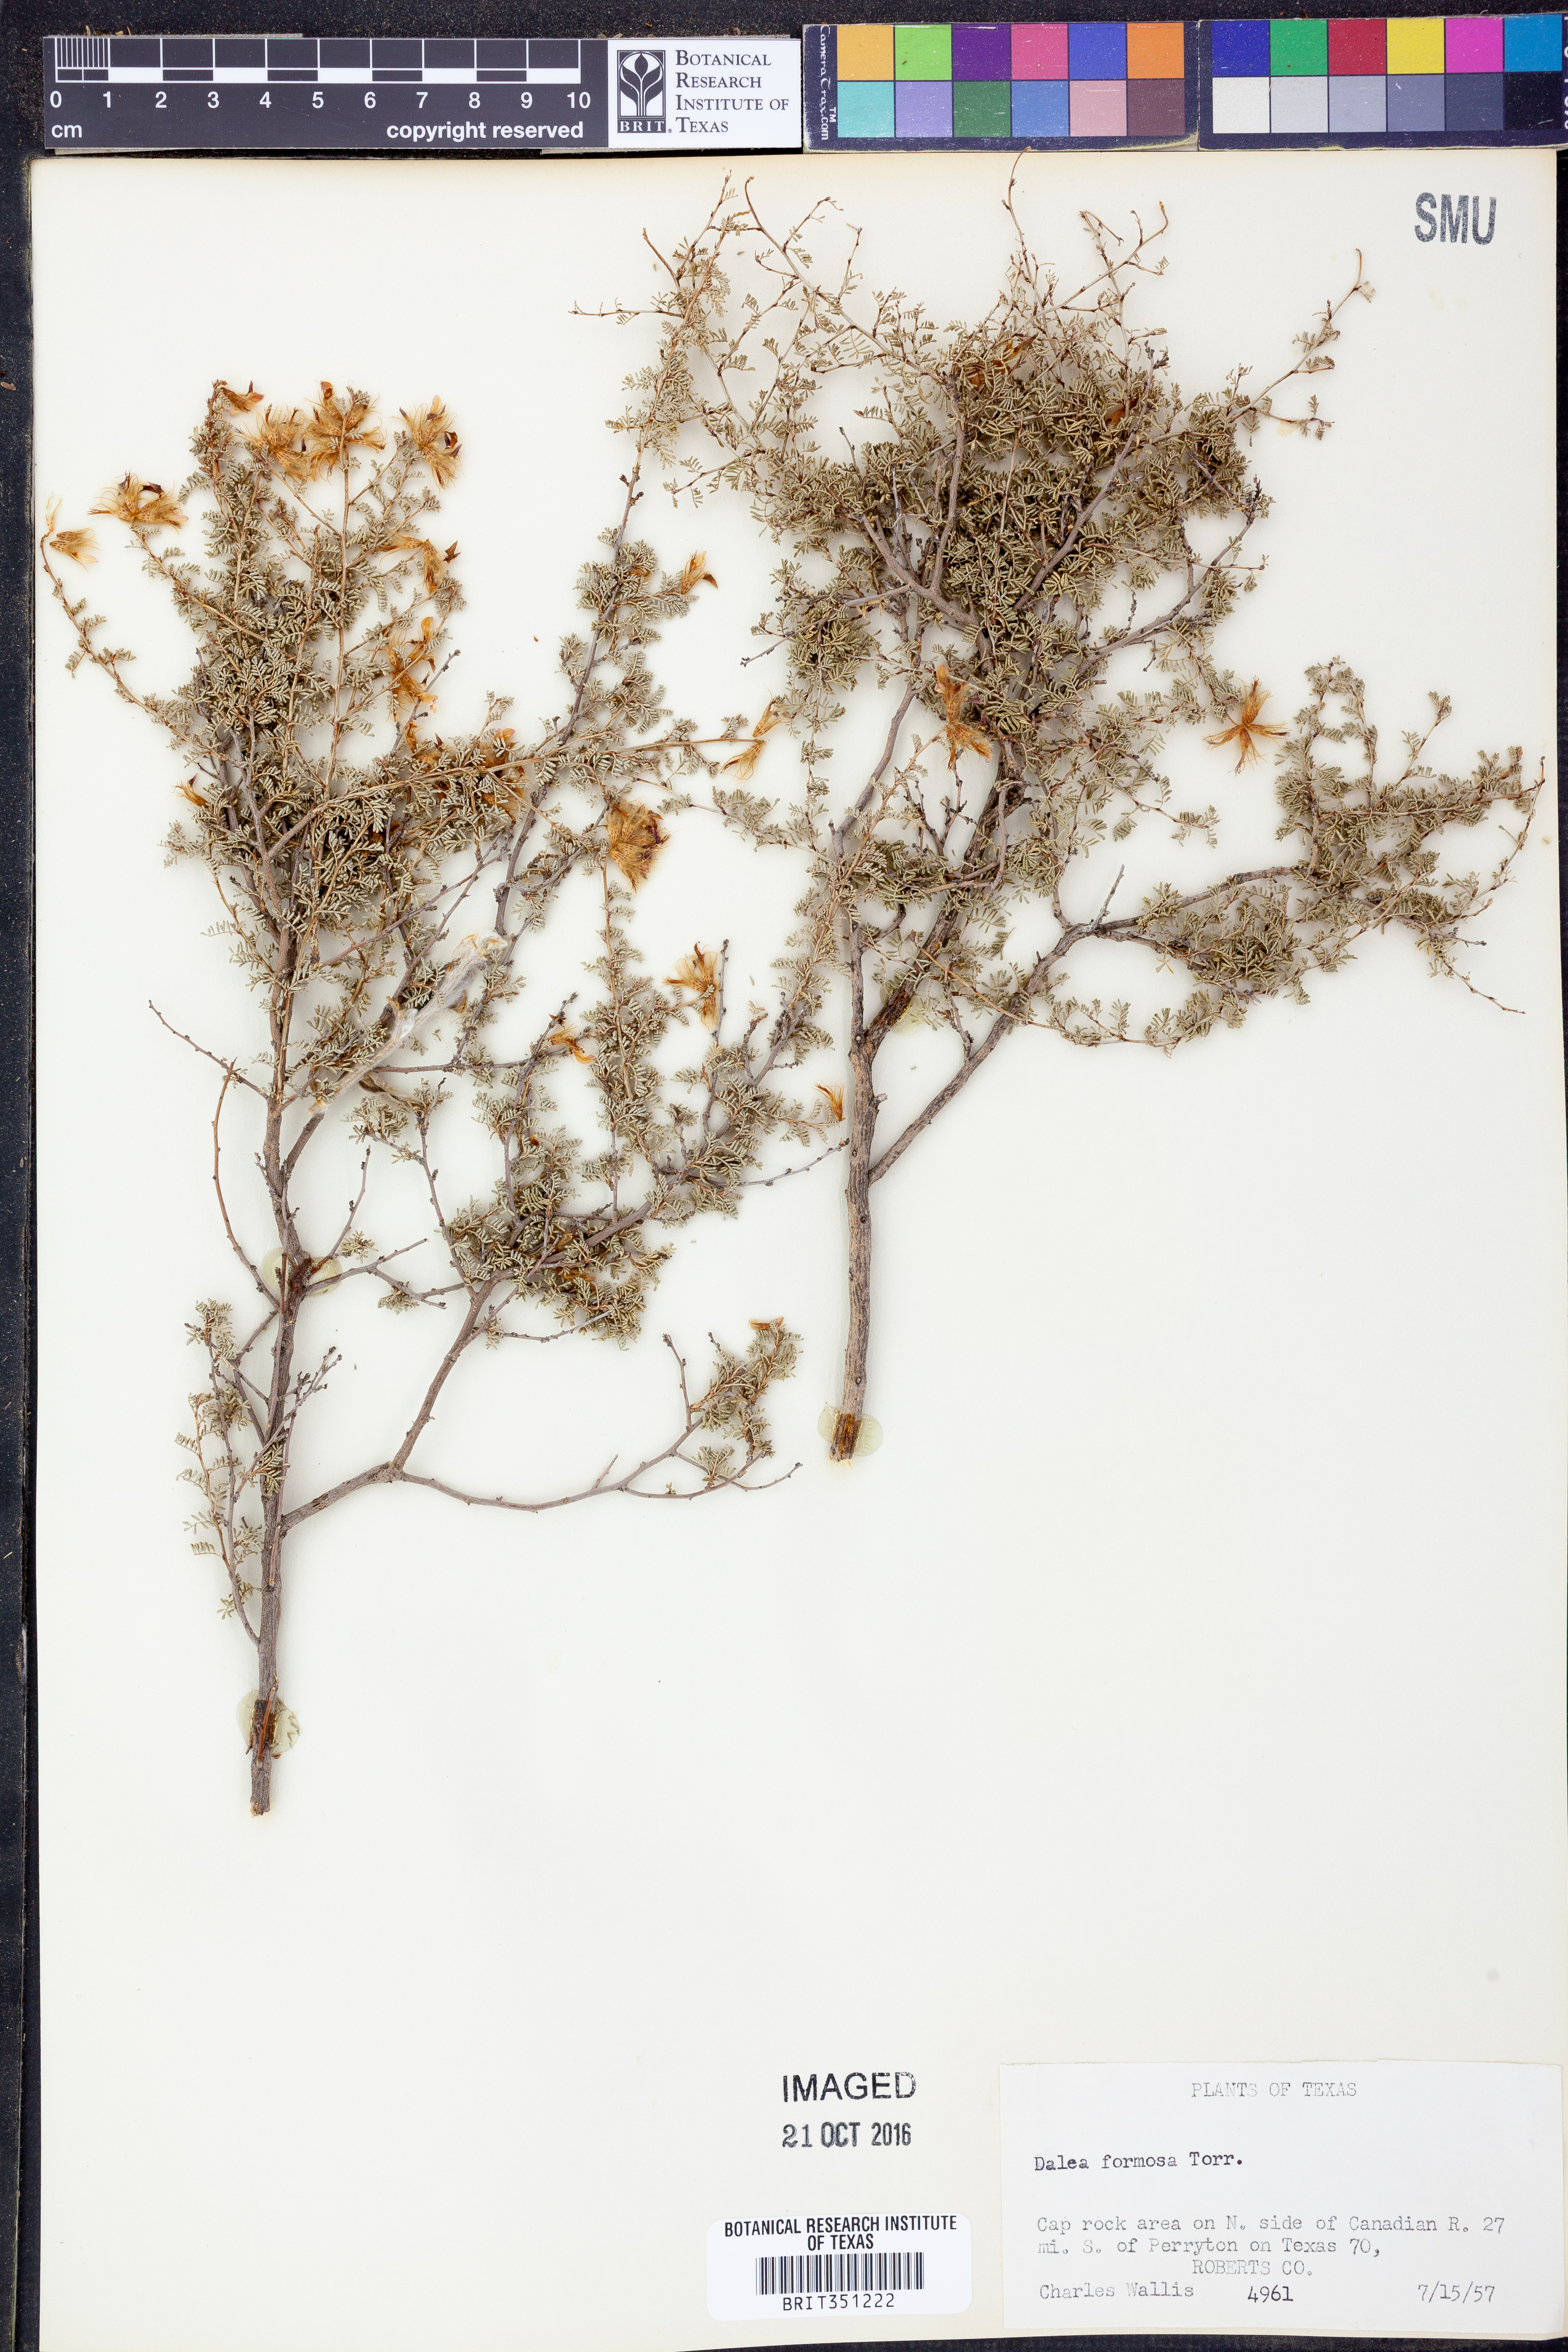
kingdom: Plantae
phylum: Tracheophyta
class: Magnoliopsida
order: Fabales
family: Fabaceae
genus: Dalea
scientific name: Dalea formosa
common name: Feather-plume dalea
